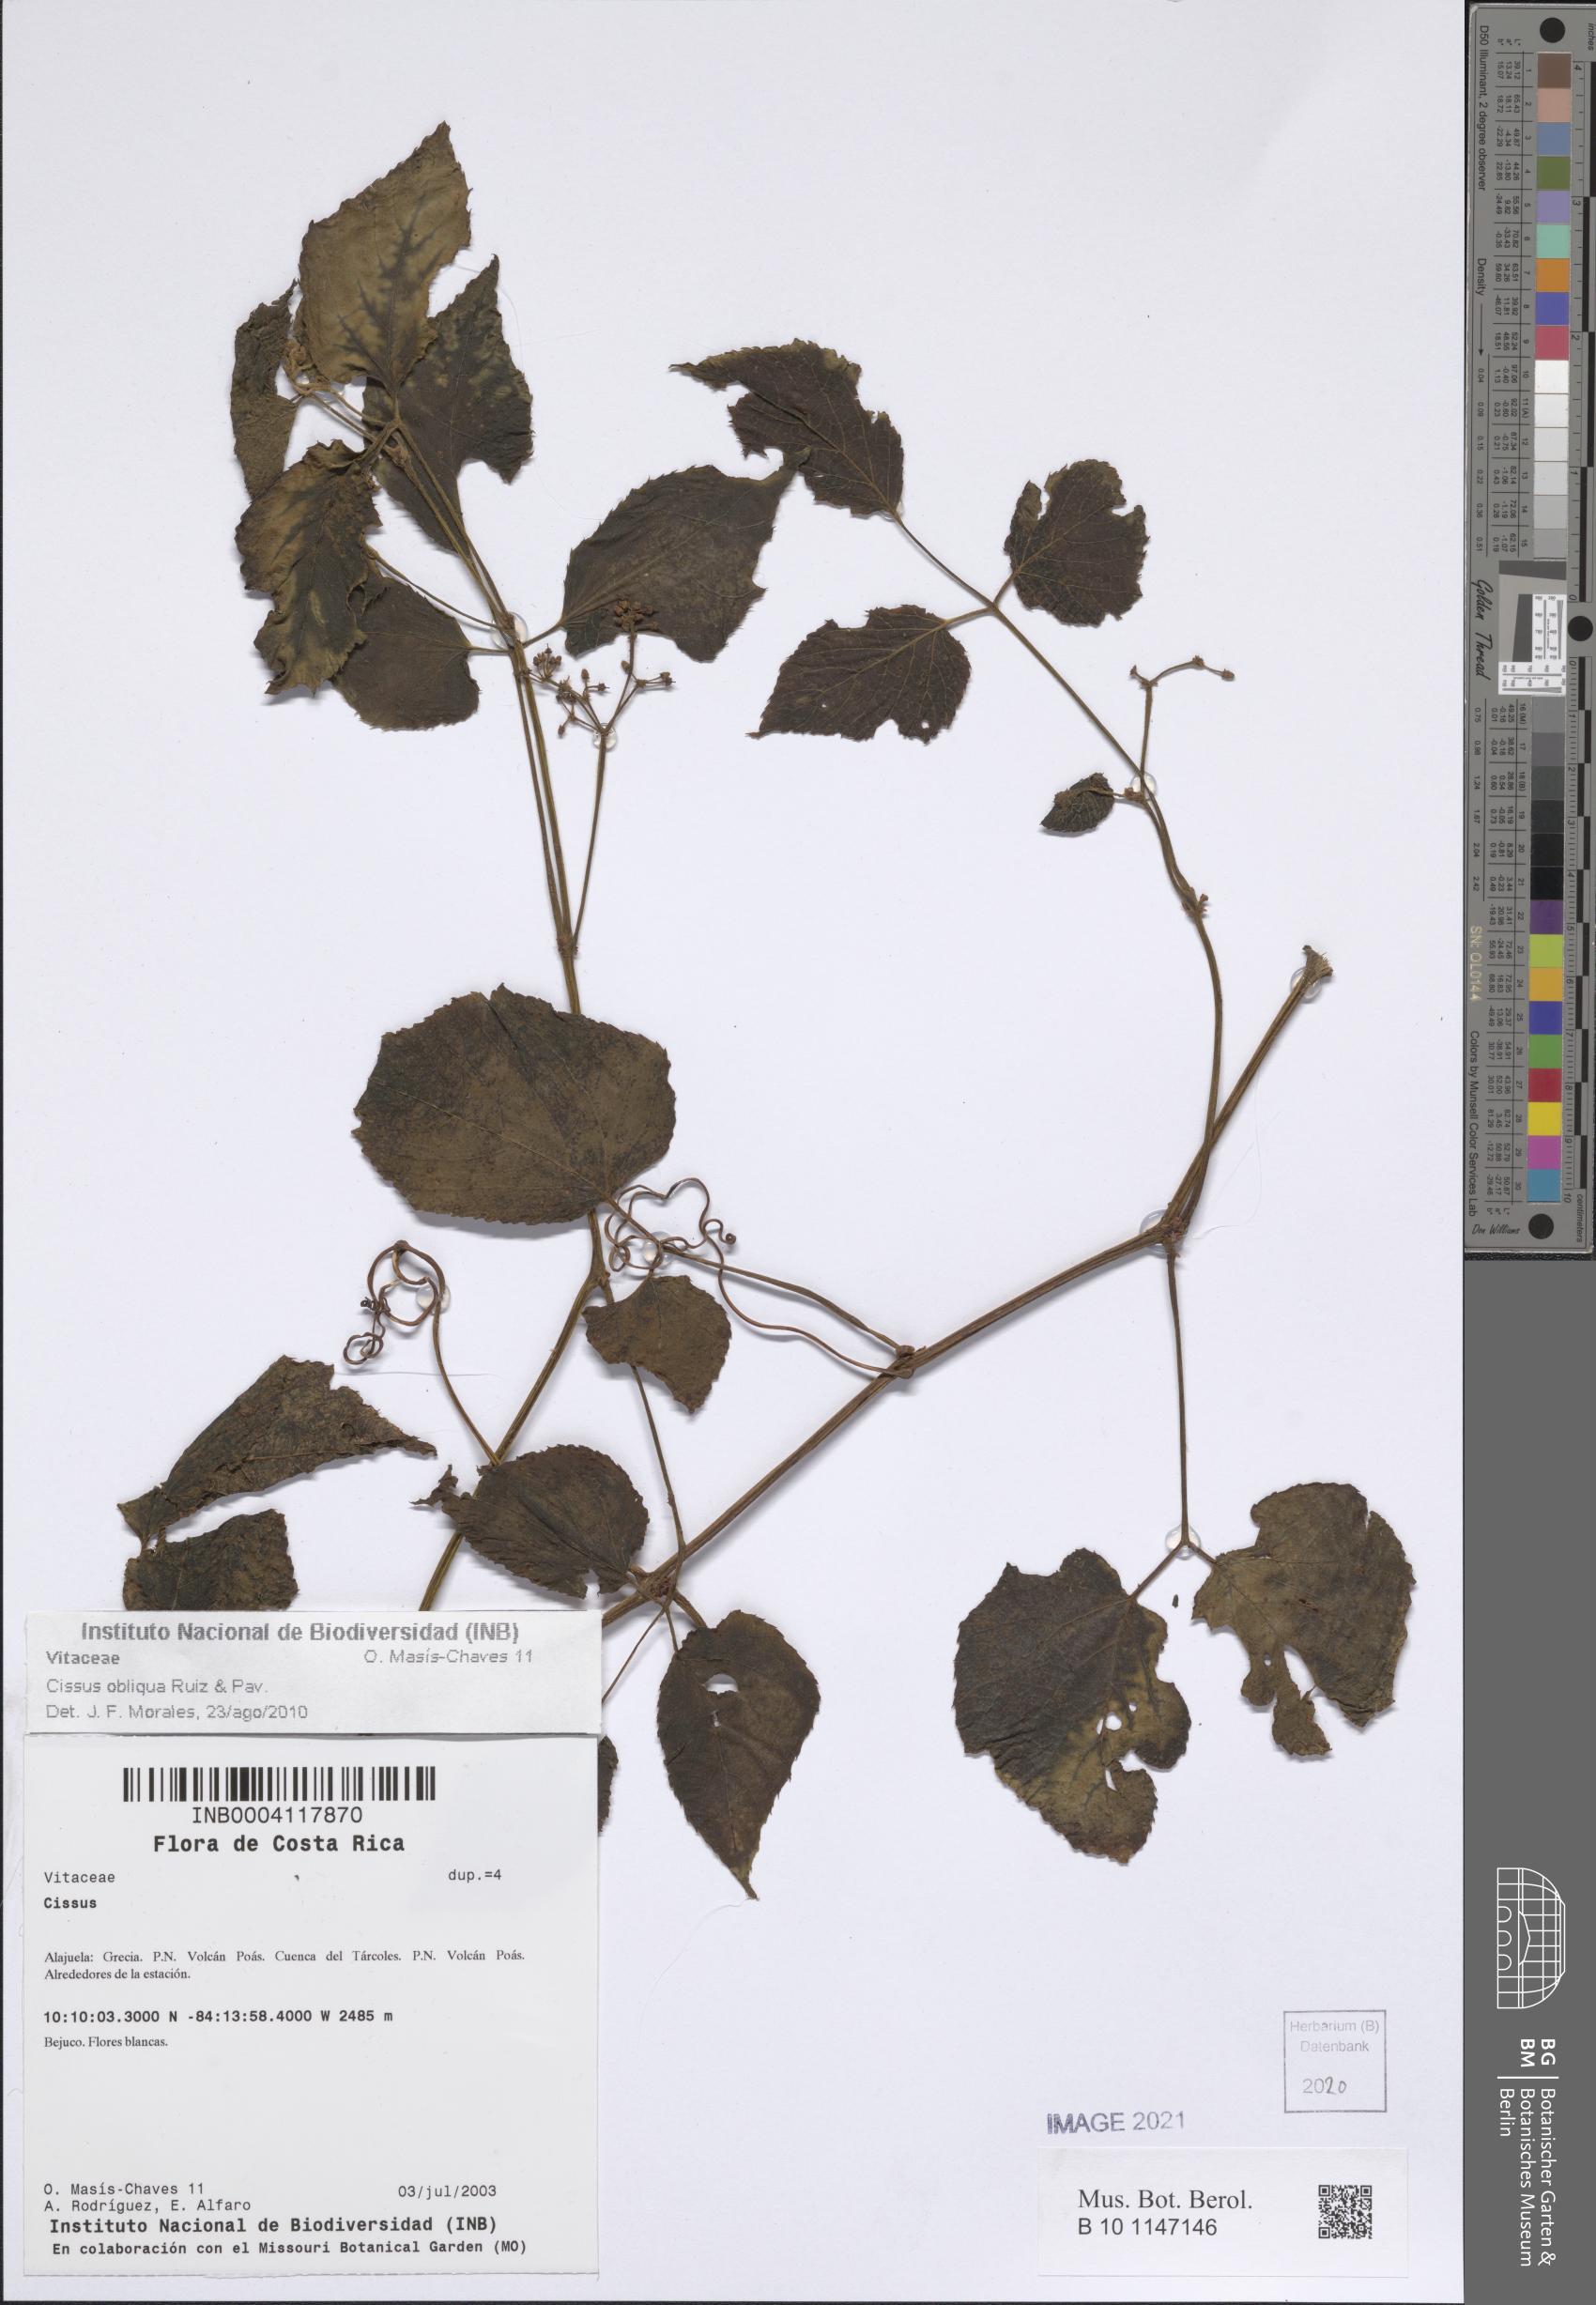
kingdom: Plantae
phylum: Tracheophyta
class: Magnoliopsida
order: Vitales
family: Vitaceae
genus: Cissus
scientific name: Cissus obliqua
